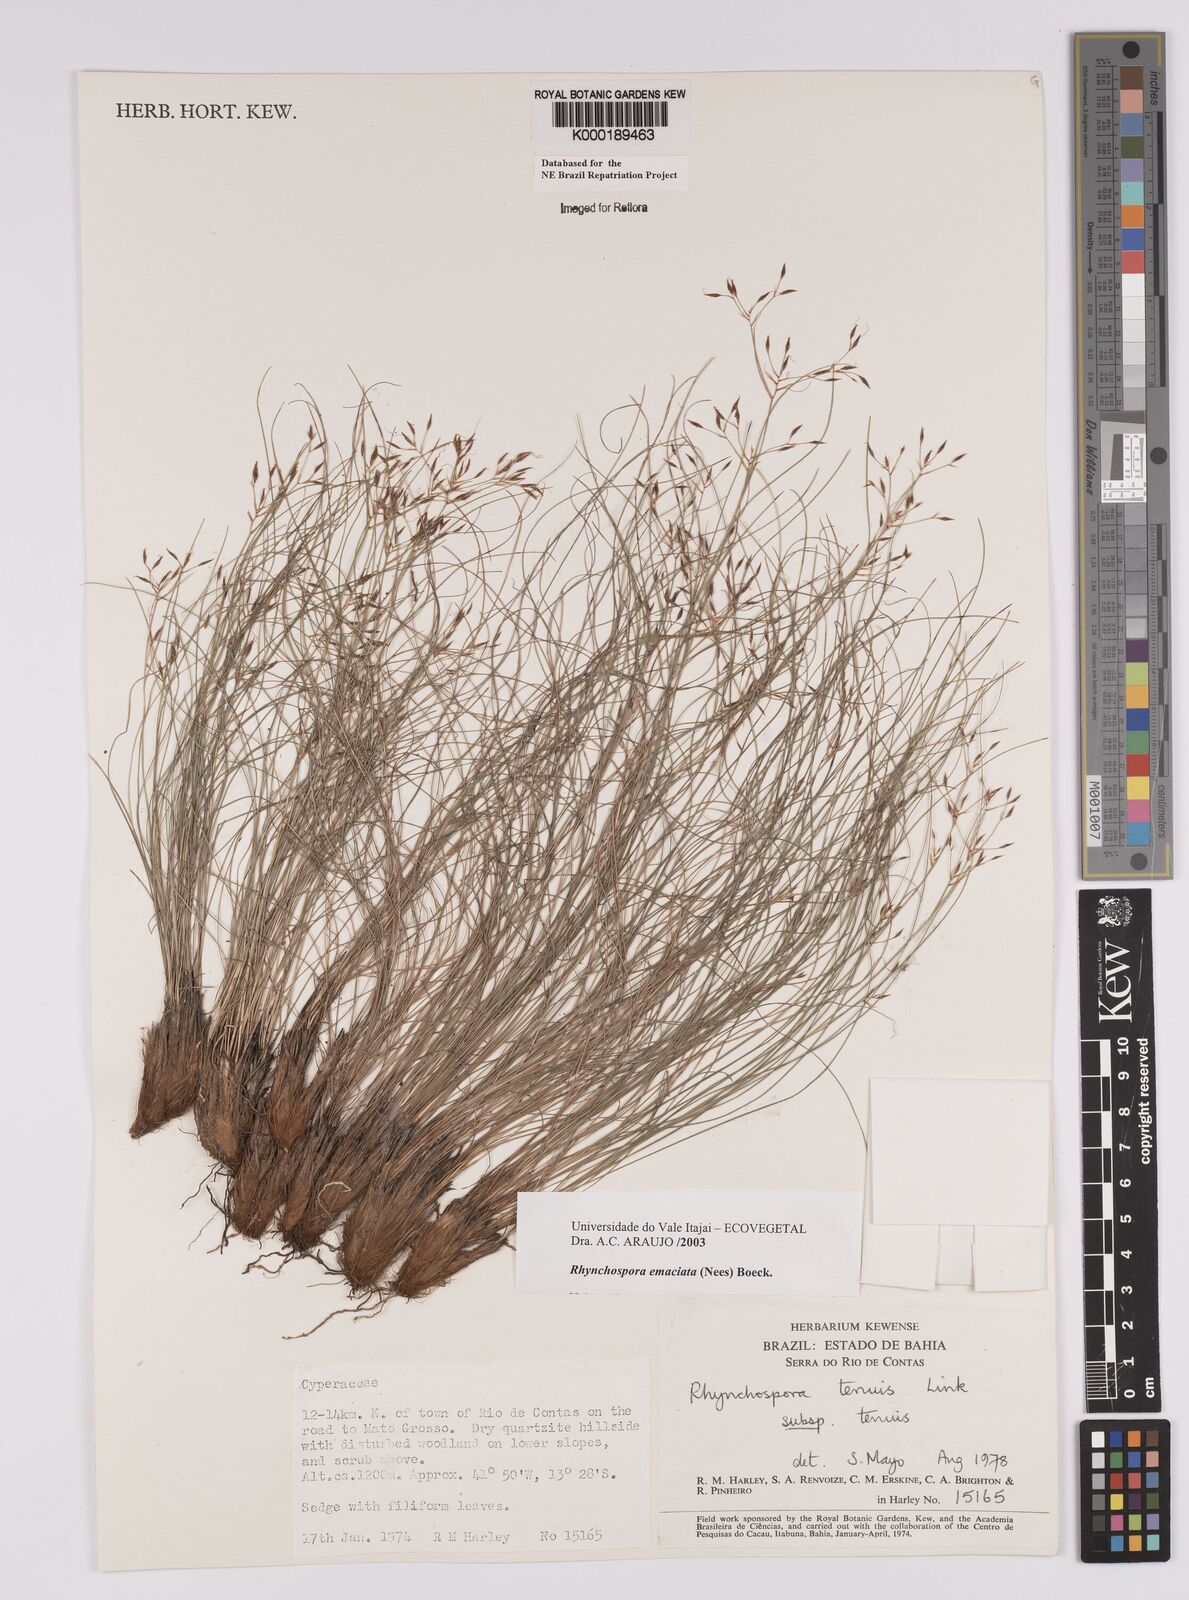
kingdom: Plantae
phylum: Tracheophyta
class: Liliopsida
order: Poales
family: Cyperaceae
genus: Rhynchospora
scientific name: Rhynchospora tenuis
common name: Quill beaksedge
